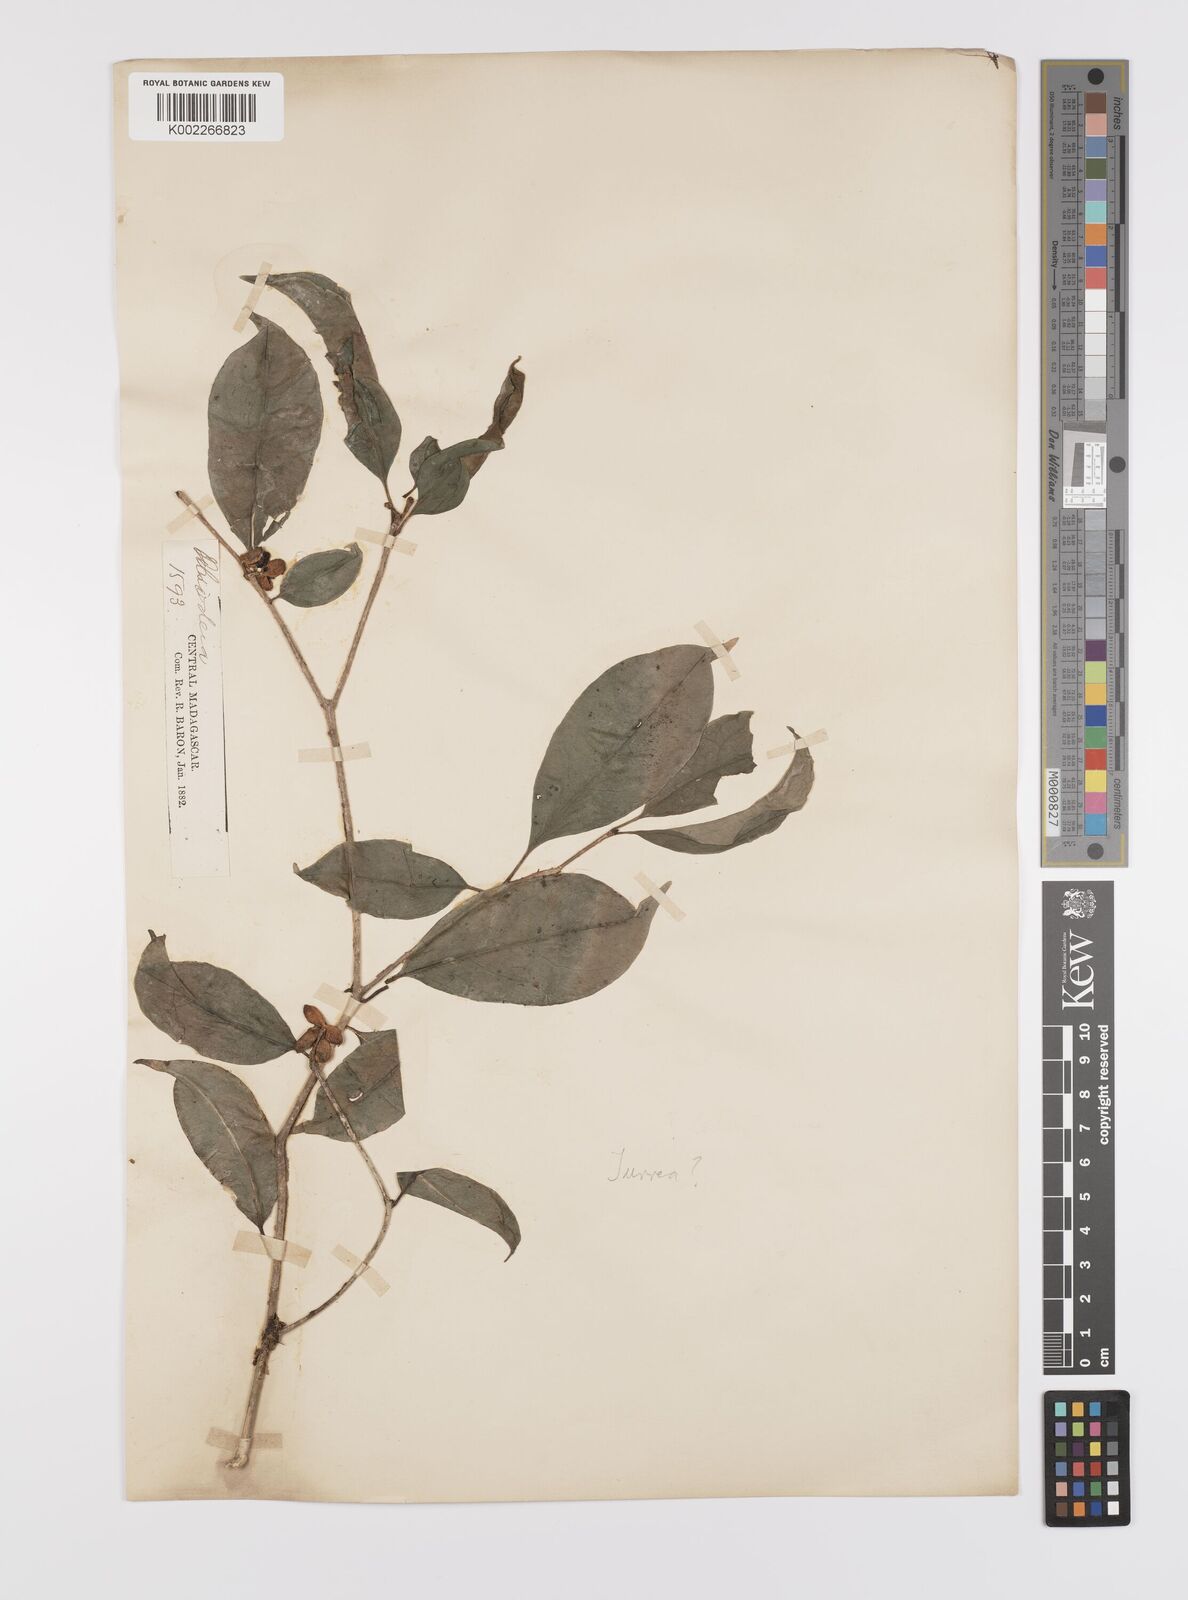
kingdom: Plantae
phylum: Tracheophyta
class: Magnoliopsida
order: Celastrales
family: Celastraceae
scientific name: Celastraceae
